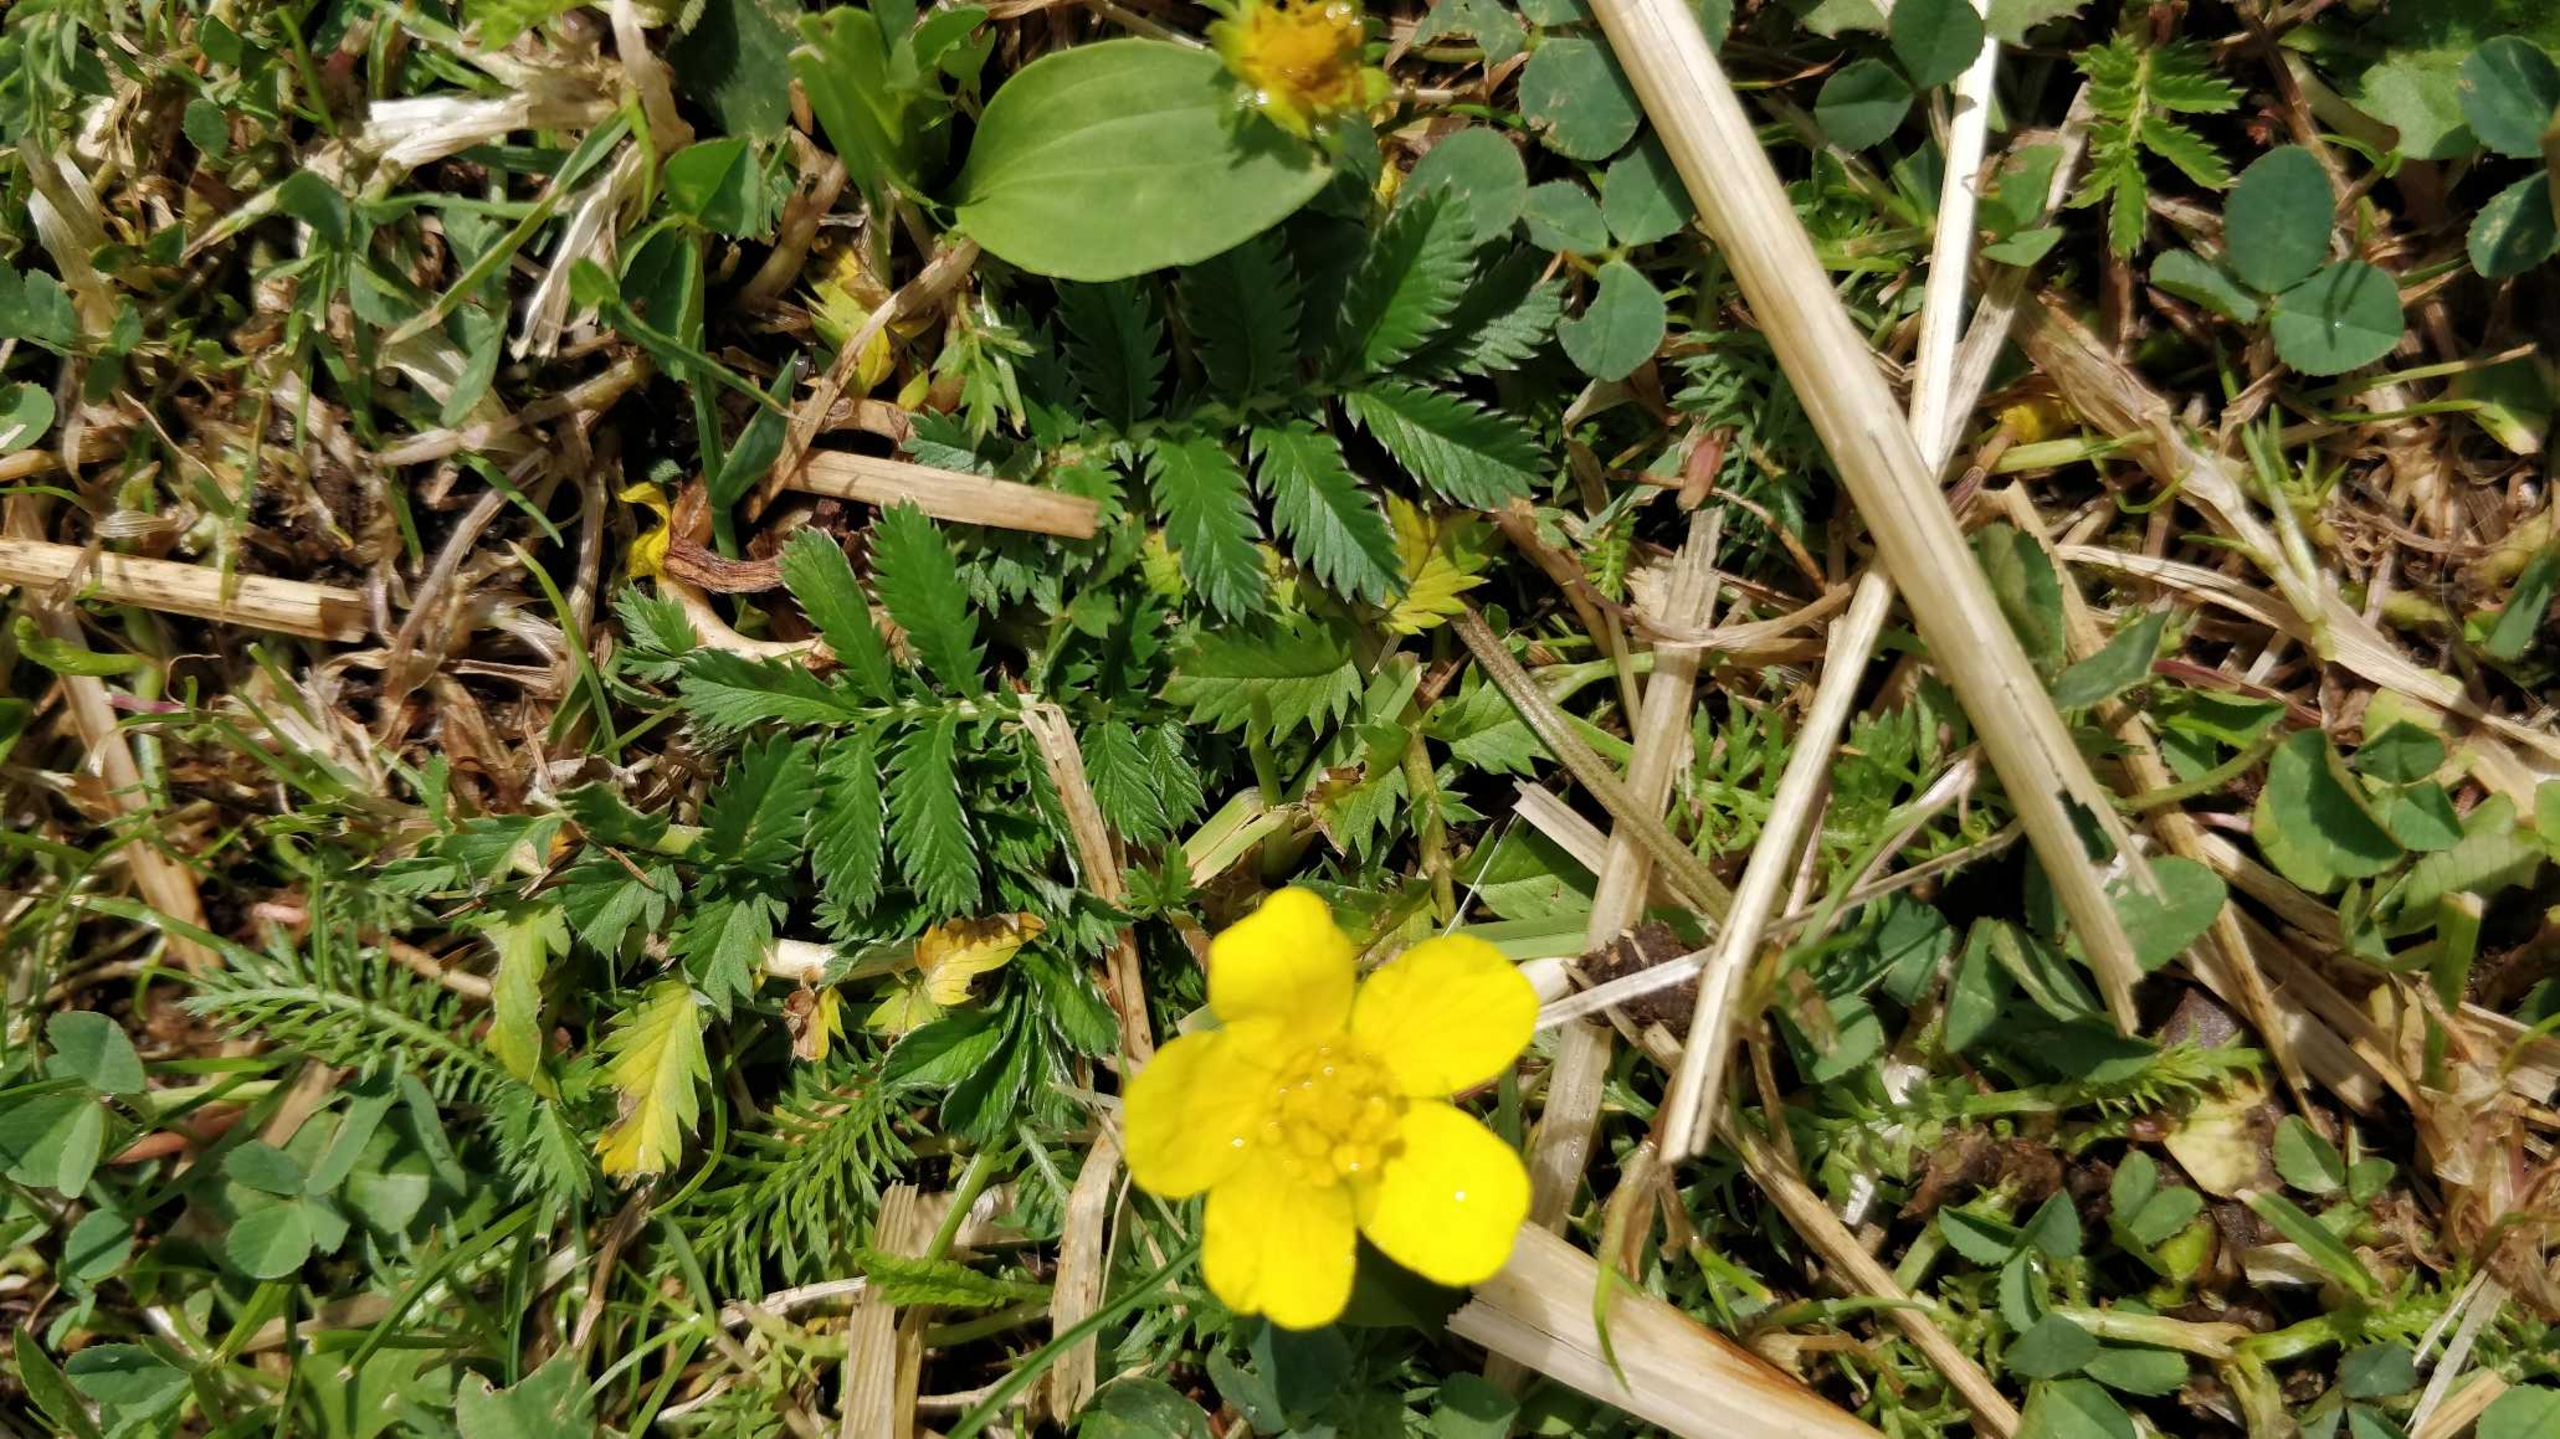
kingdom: Plantae
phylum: Tracheophyta
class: Magnoliopsida
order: Rosales
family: Rosaceae
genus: Argentina
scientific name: Argentina anserina
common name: Gåsepotentil
